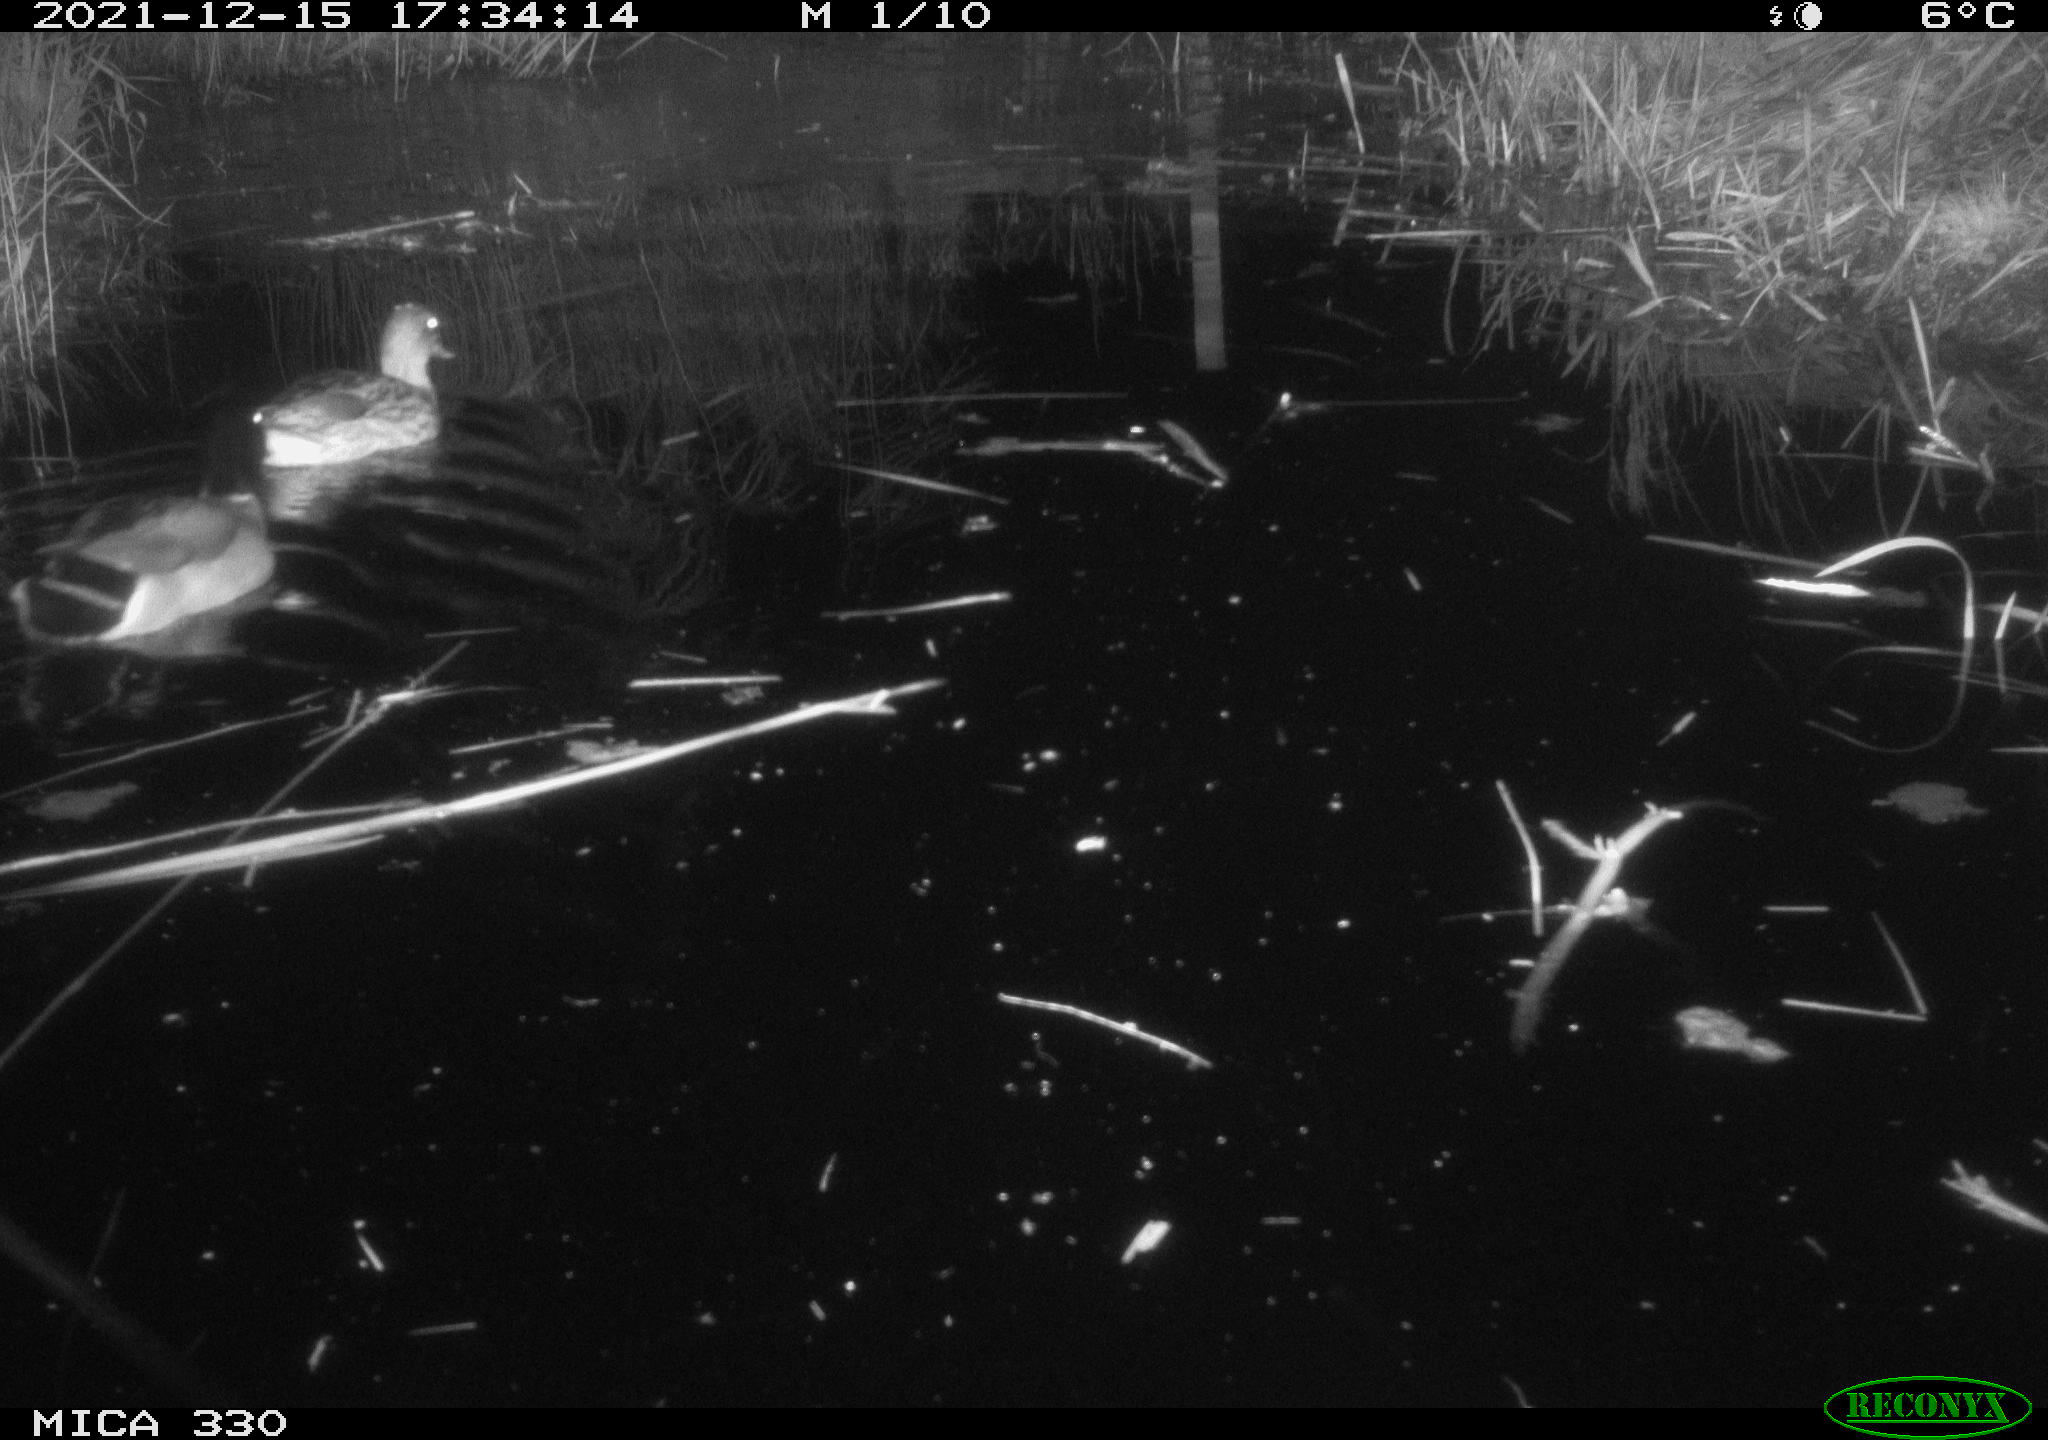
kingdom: Animalia
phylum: Chordata
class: Aves
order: Anseriformes
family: Anatidae
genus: Anas
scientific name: Anas platyrhynchos
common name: Mallard
